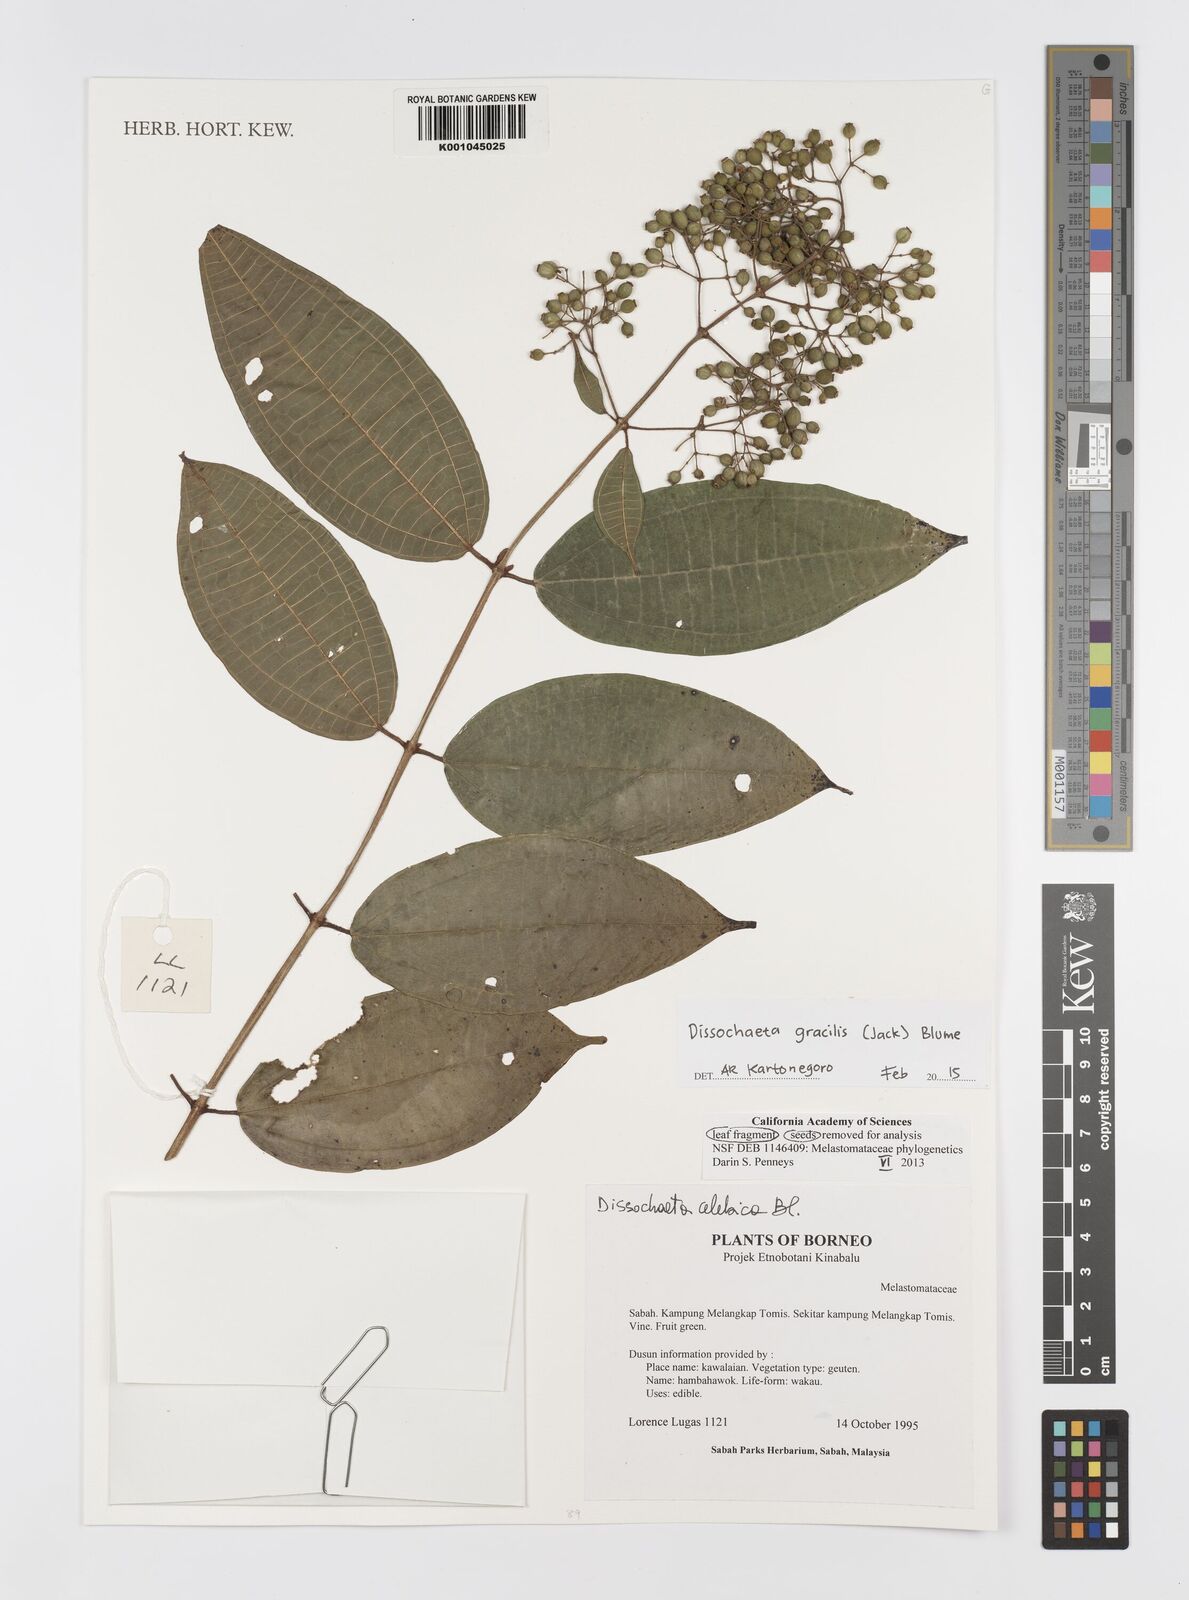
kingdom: Plantae
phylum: Tracheophyta
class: Magnoliopsida
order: Myrtales
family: Melastomataceae
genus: Dissochaeta
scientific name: Dissochaeta gracilis
